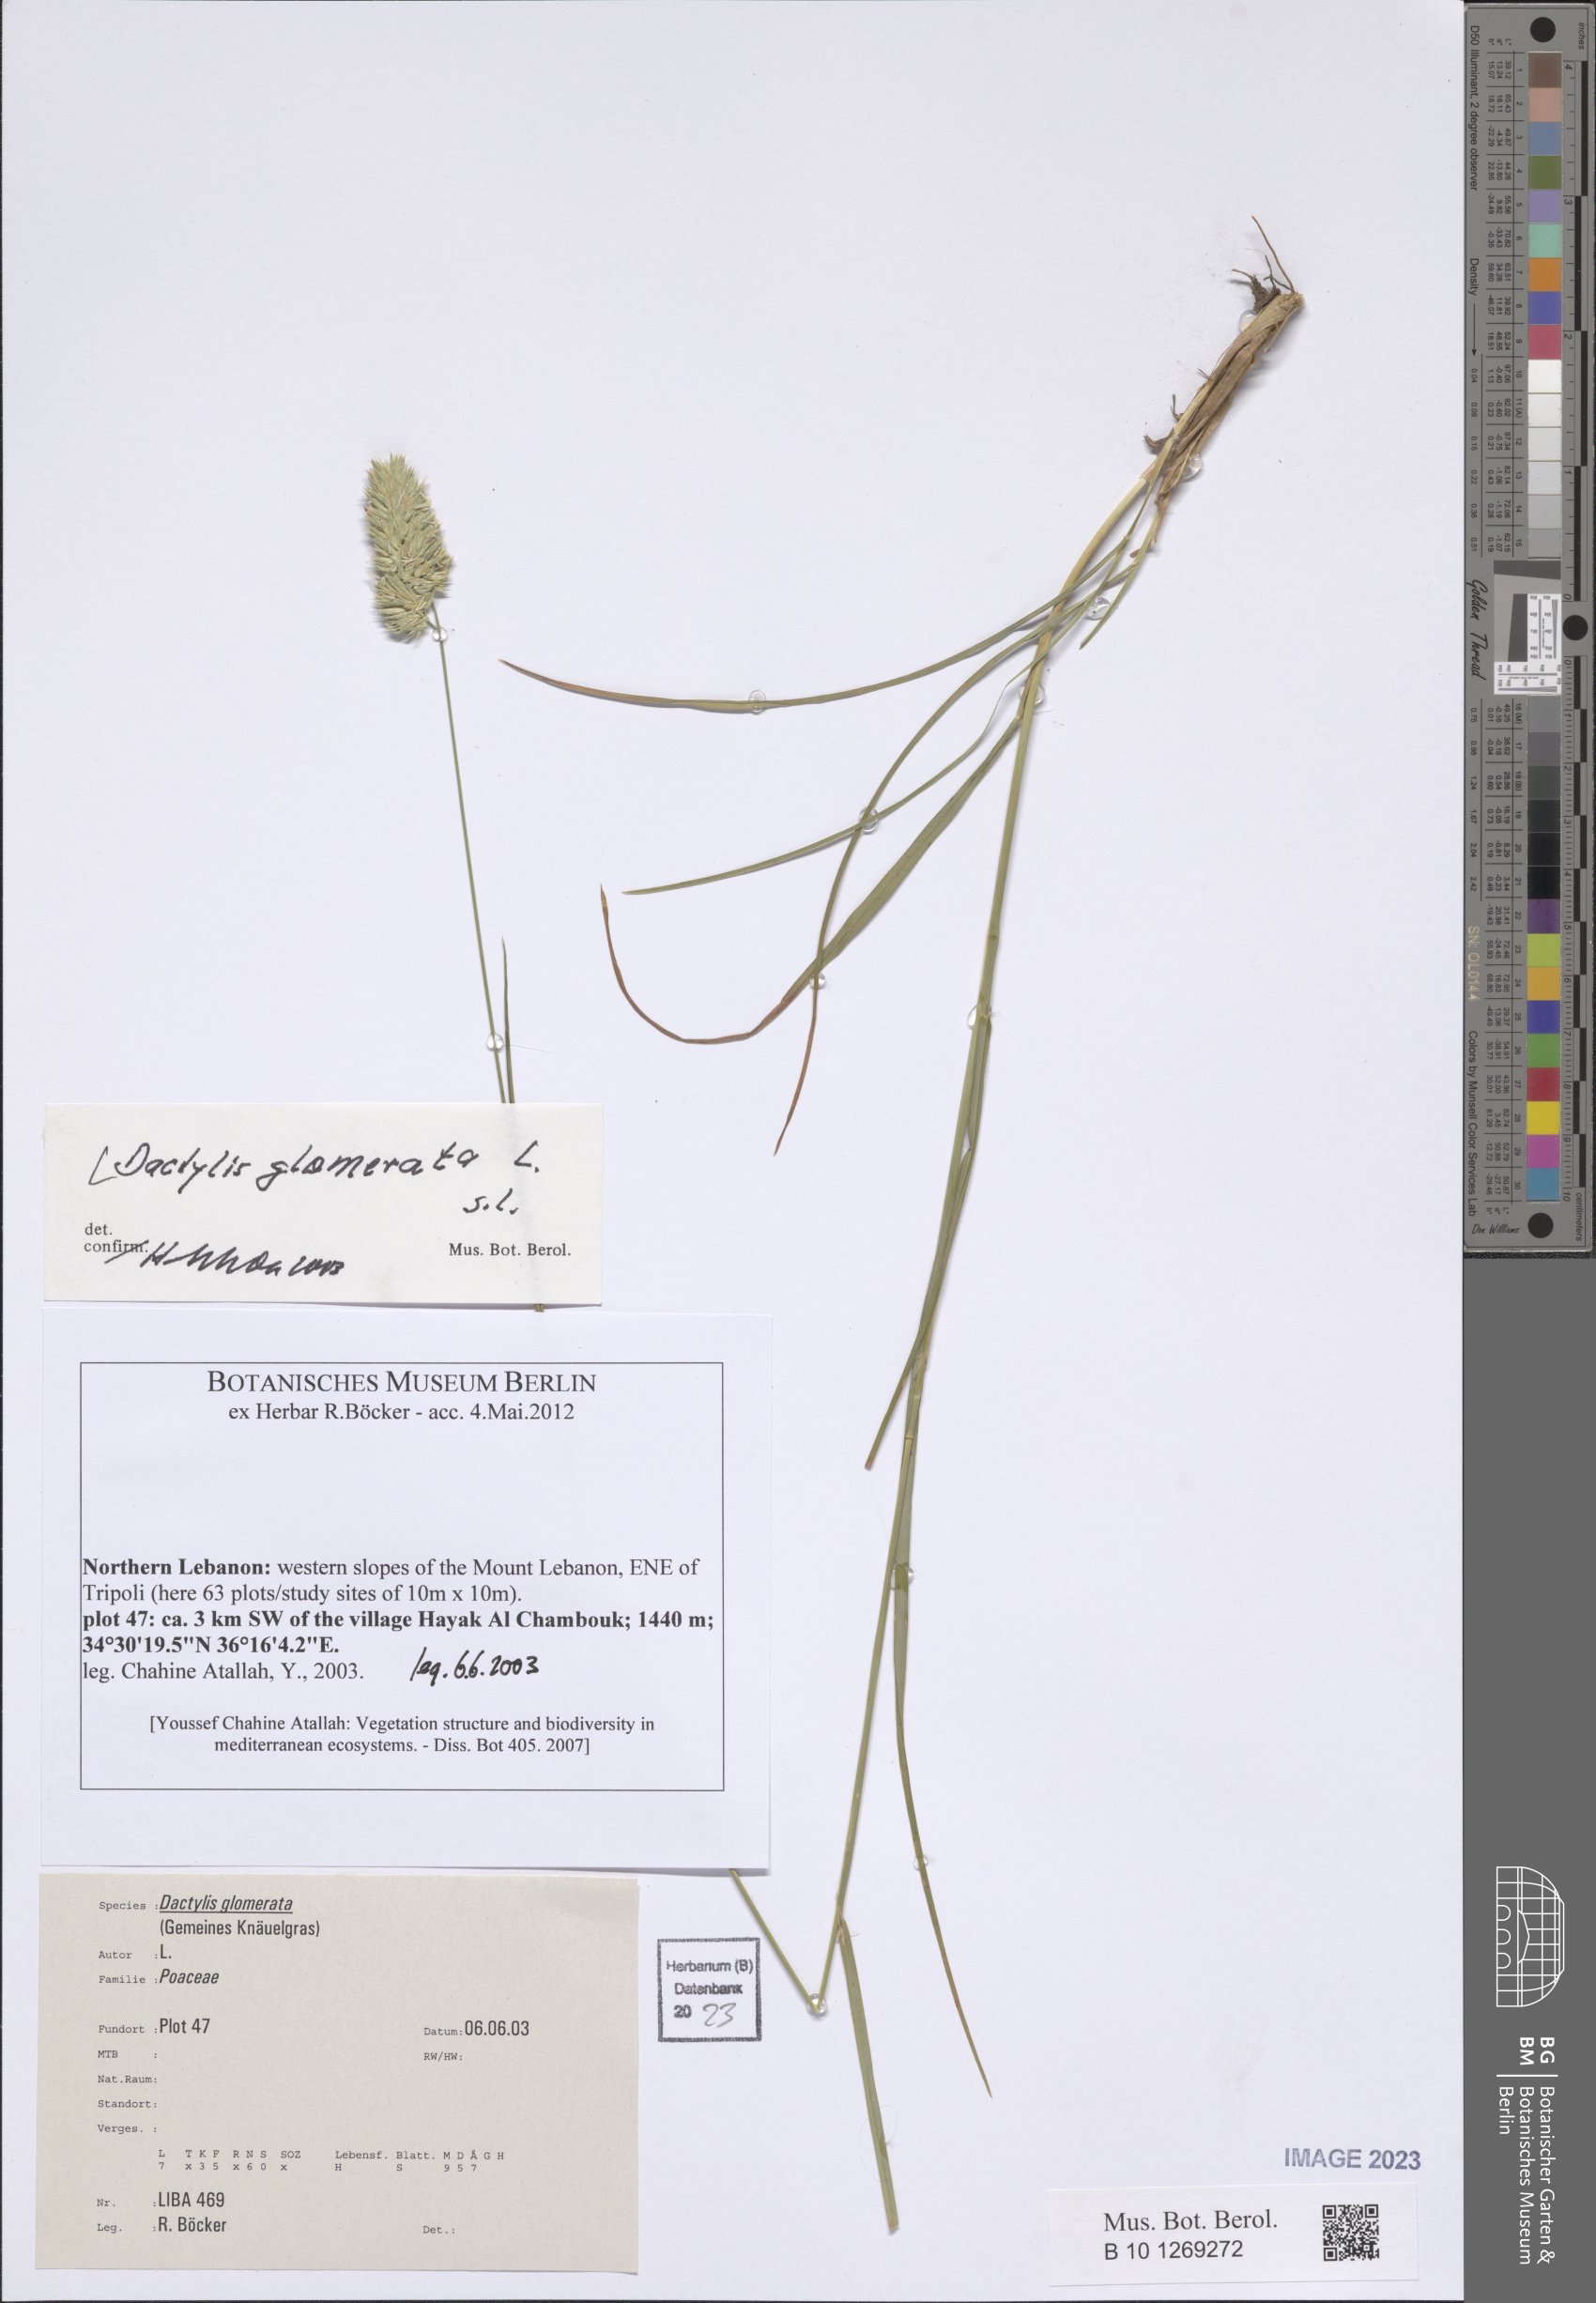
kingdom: Plantae
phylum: Tracheophyta
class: Liliopsida
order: Poales
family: Poaceae
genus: Dactylis
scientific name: Dactylis glomerata
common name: Orchardgrass
